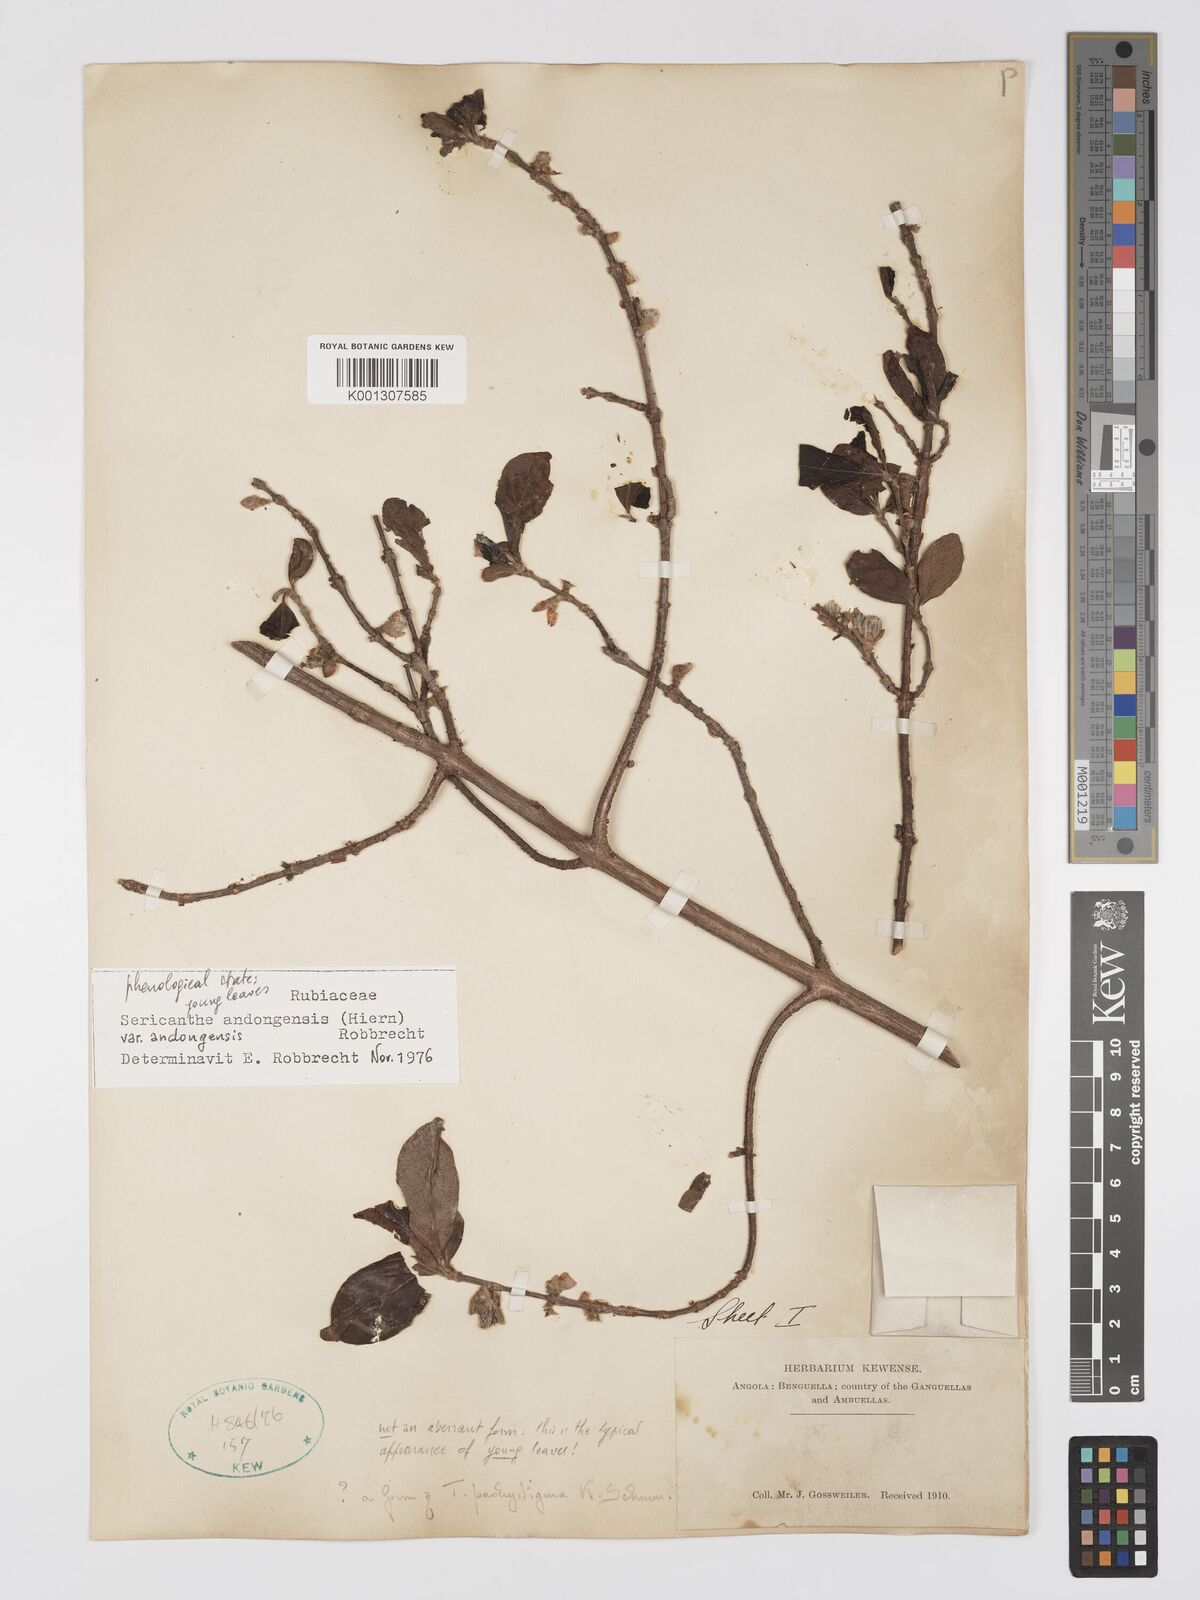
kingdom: Plantae
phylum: Tracheophyta
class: Magnoliopsida
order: Gentianales
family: Rubiaceae
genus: Sericanthe
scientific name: Sericanthe andongensis
